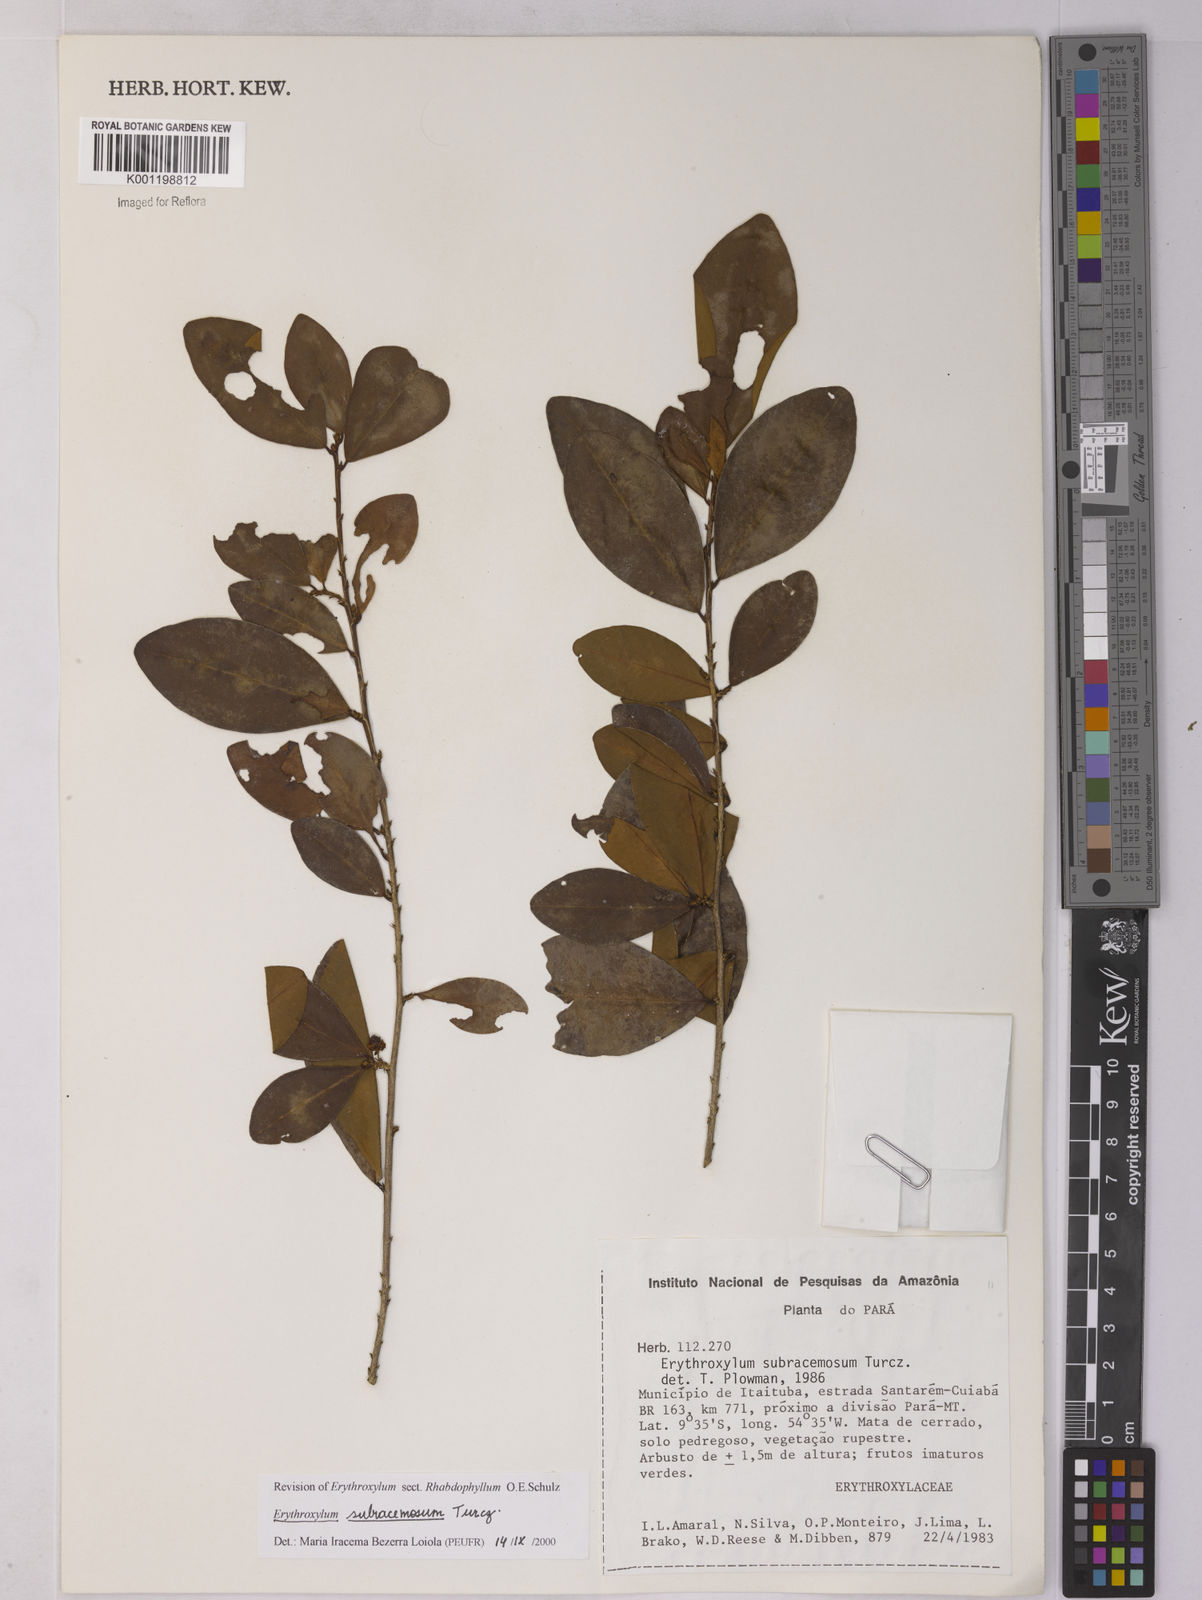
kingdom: Plantae
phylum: Tracheophyta
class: Magnoliopsida
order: Malpighiales
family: Erythroxylaceae
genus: Erythroxylum
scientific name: Erythroxylum subracemosum
